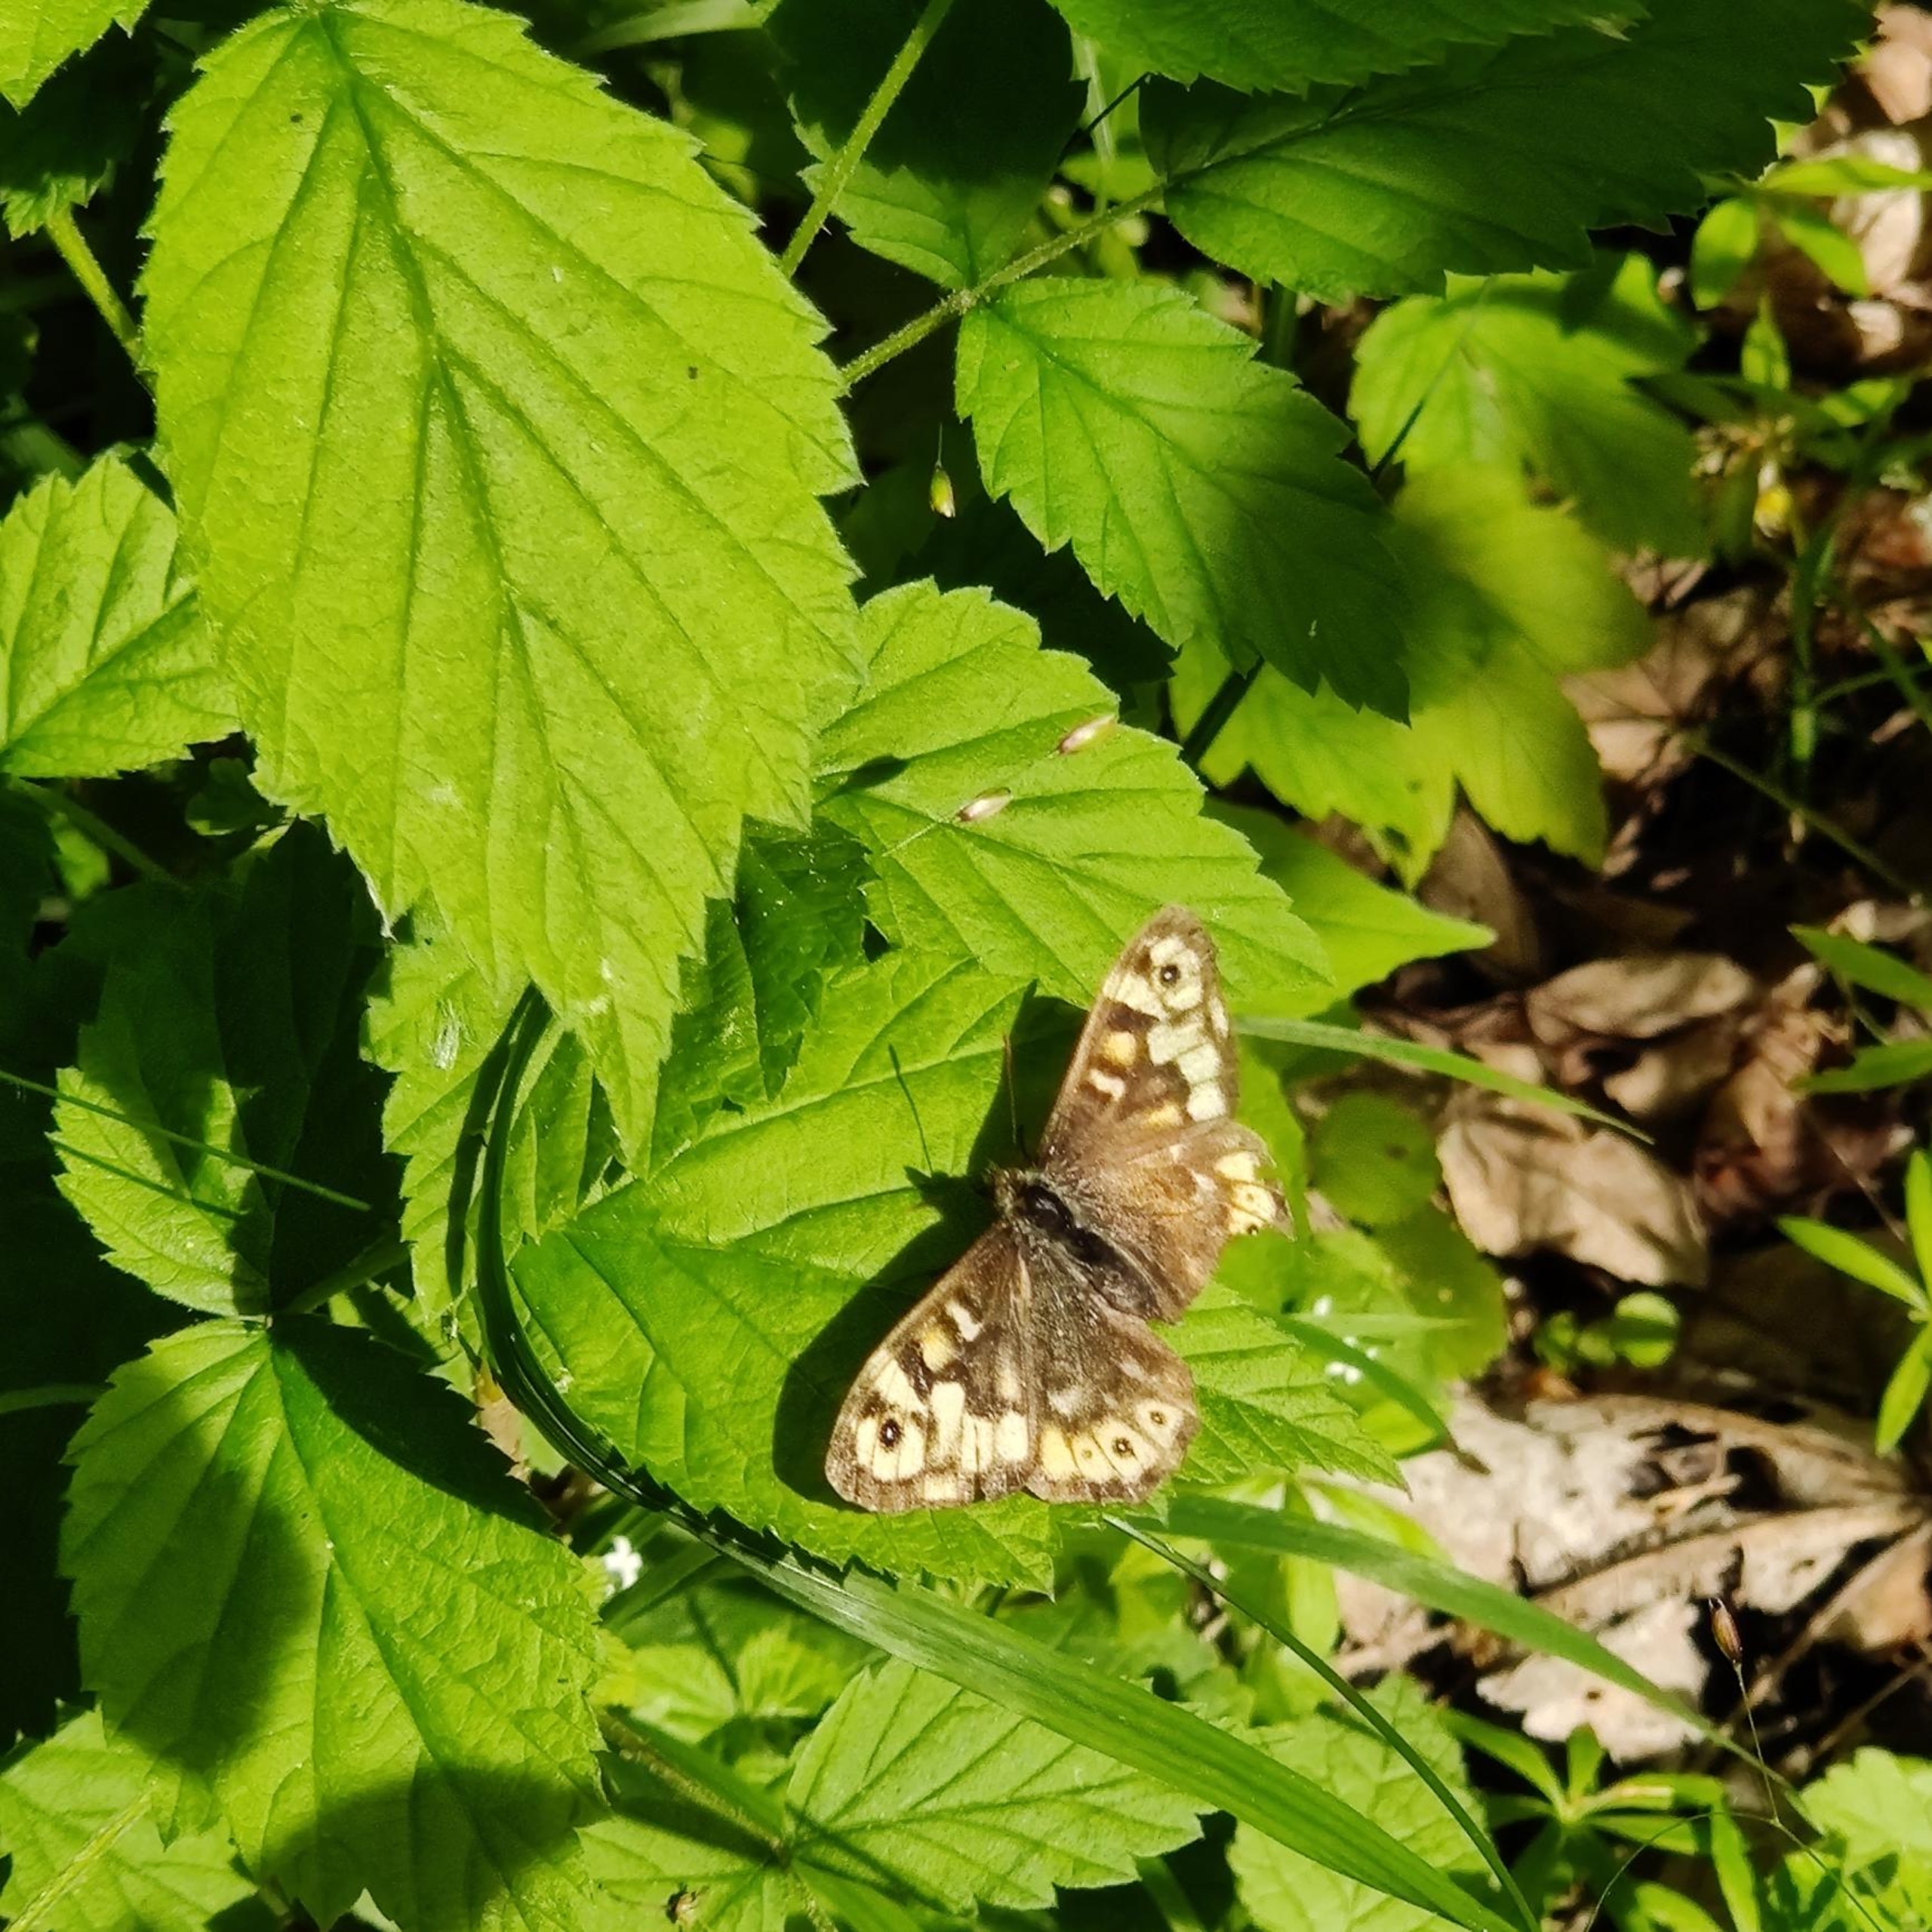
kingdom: Animalia
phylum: Arthropoda
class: Insecta
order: Lepidoptera
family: Nymphalidae
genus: Pararge
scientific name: Pararge aegeria
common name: Skovrandøje
